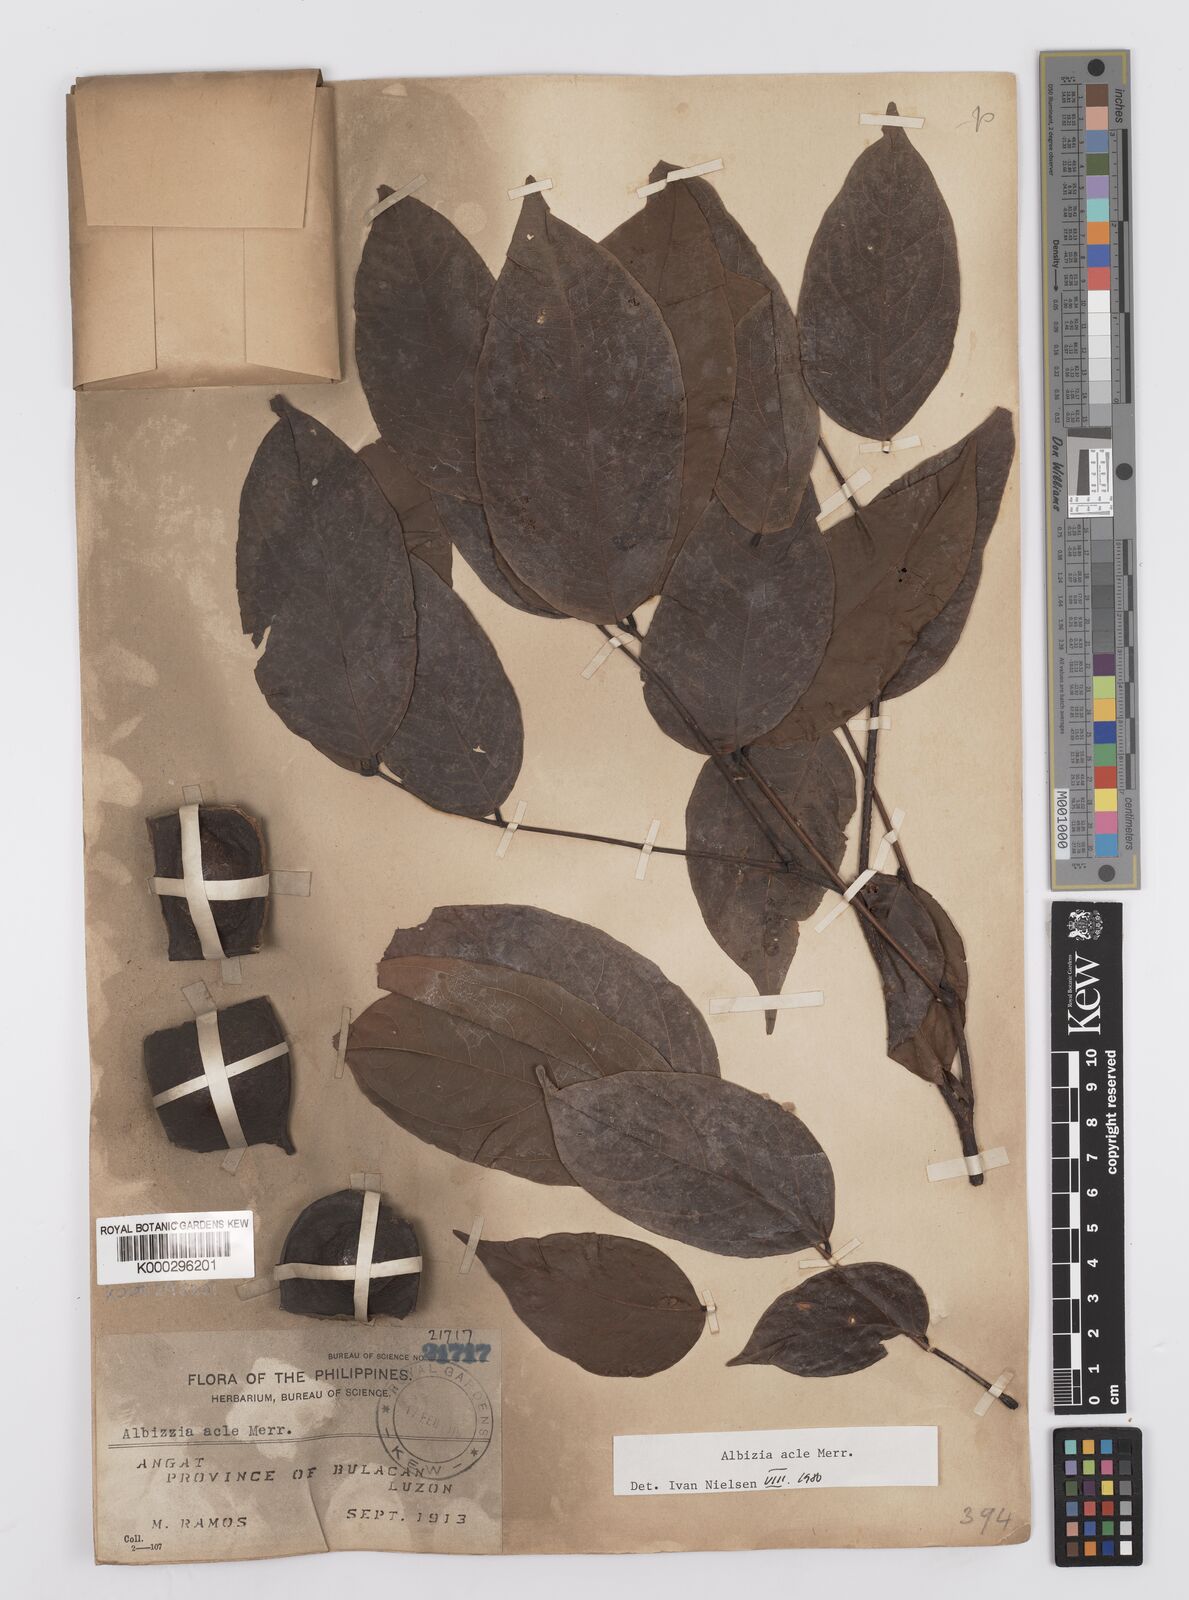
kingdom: Plantae
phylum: Tracheophyta
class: Magnoliopsida
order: Fabales
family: Fabaceae
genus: Albizia
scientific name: Albizia acle
